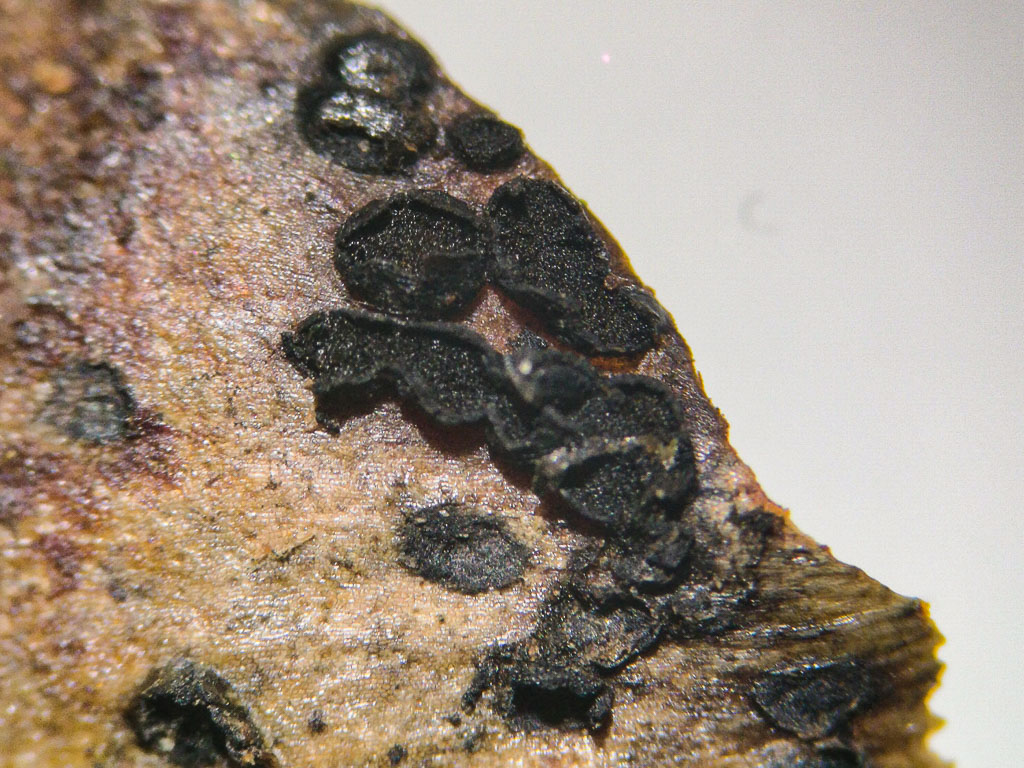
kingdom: Fungi
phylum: Ascomycota
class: Dothideomycetes
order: Pleosporales
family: Melanommataceae
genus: Phragmotrichum
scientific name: Phragmotrichum chailletii
